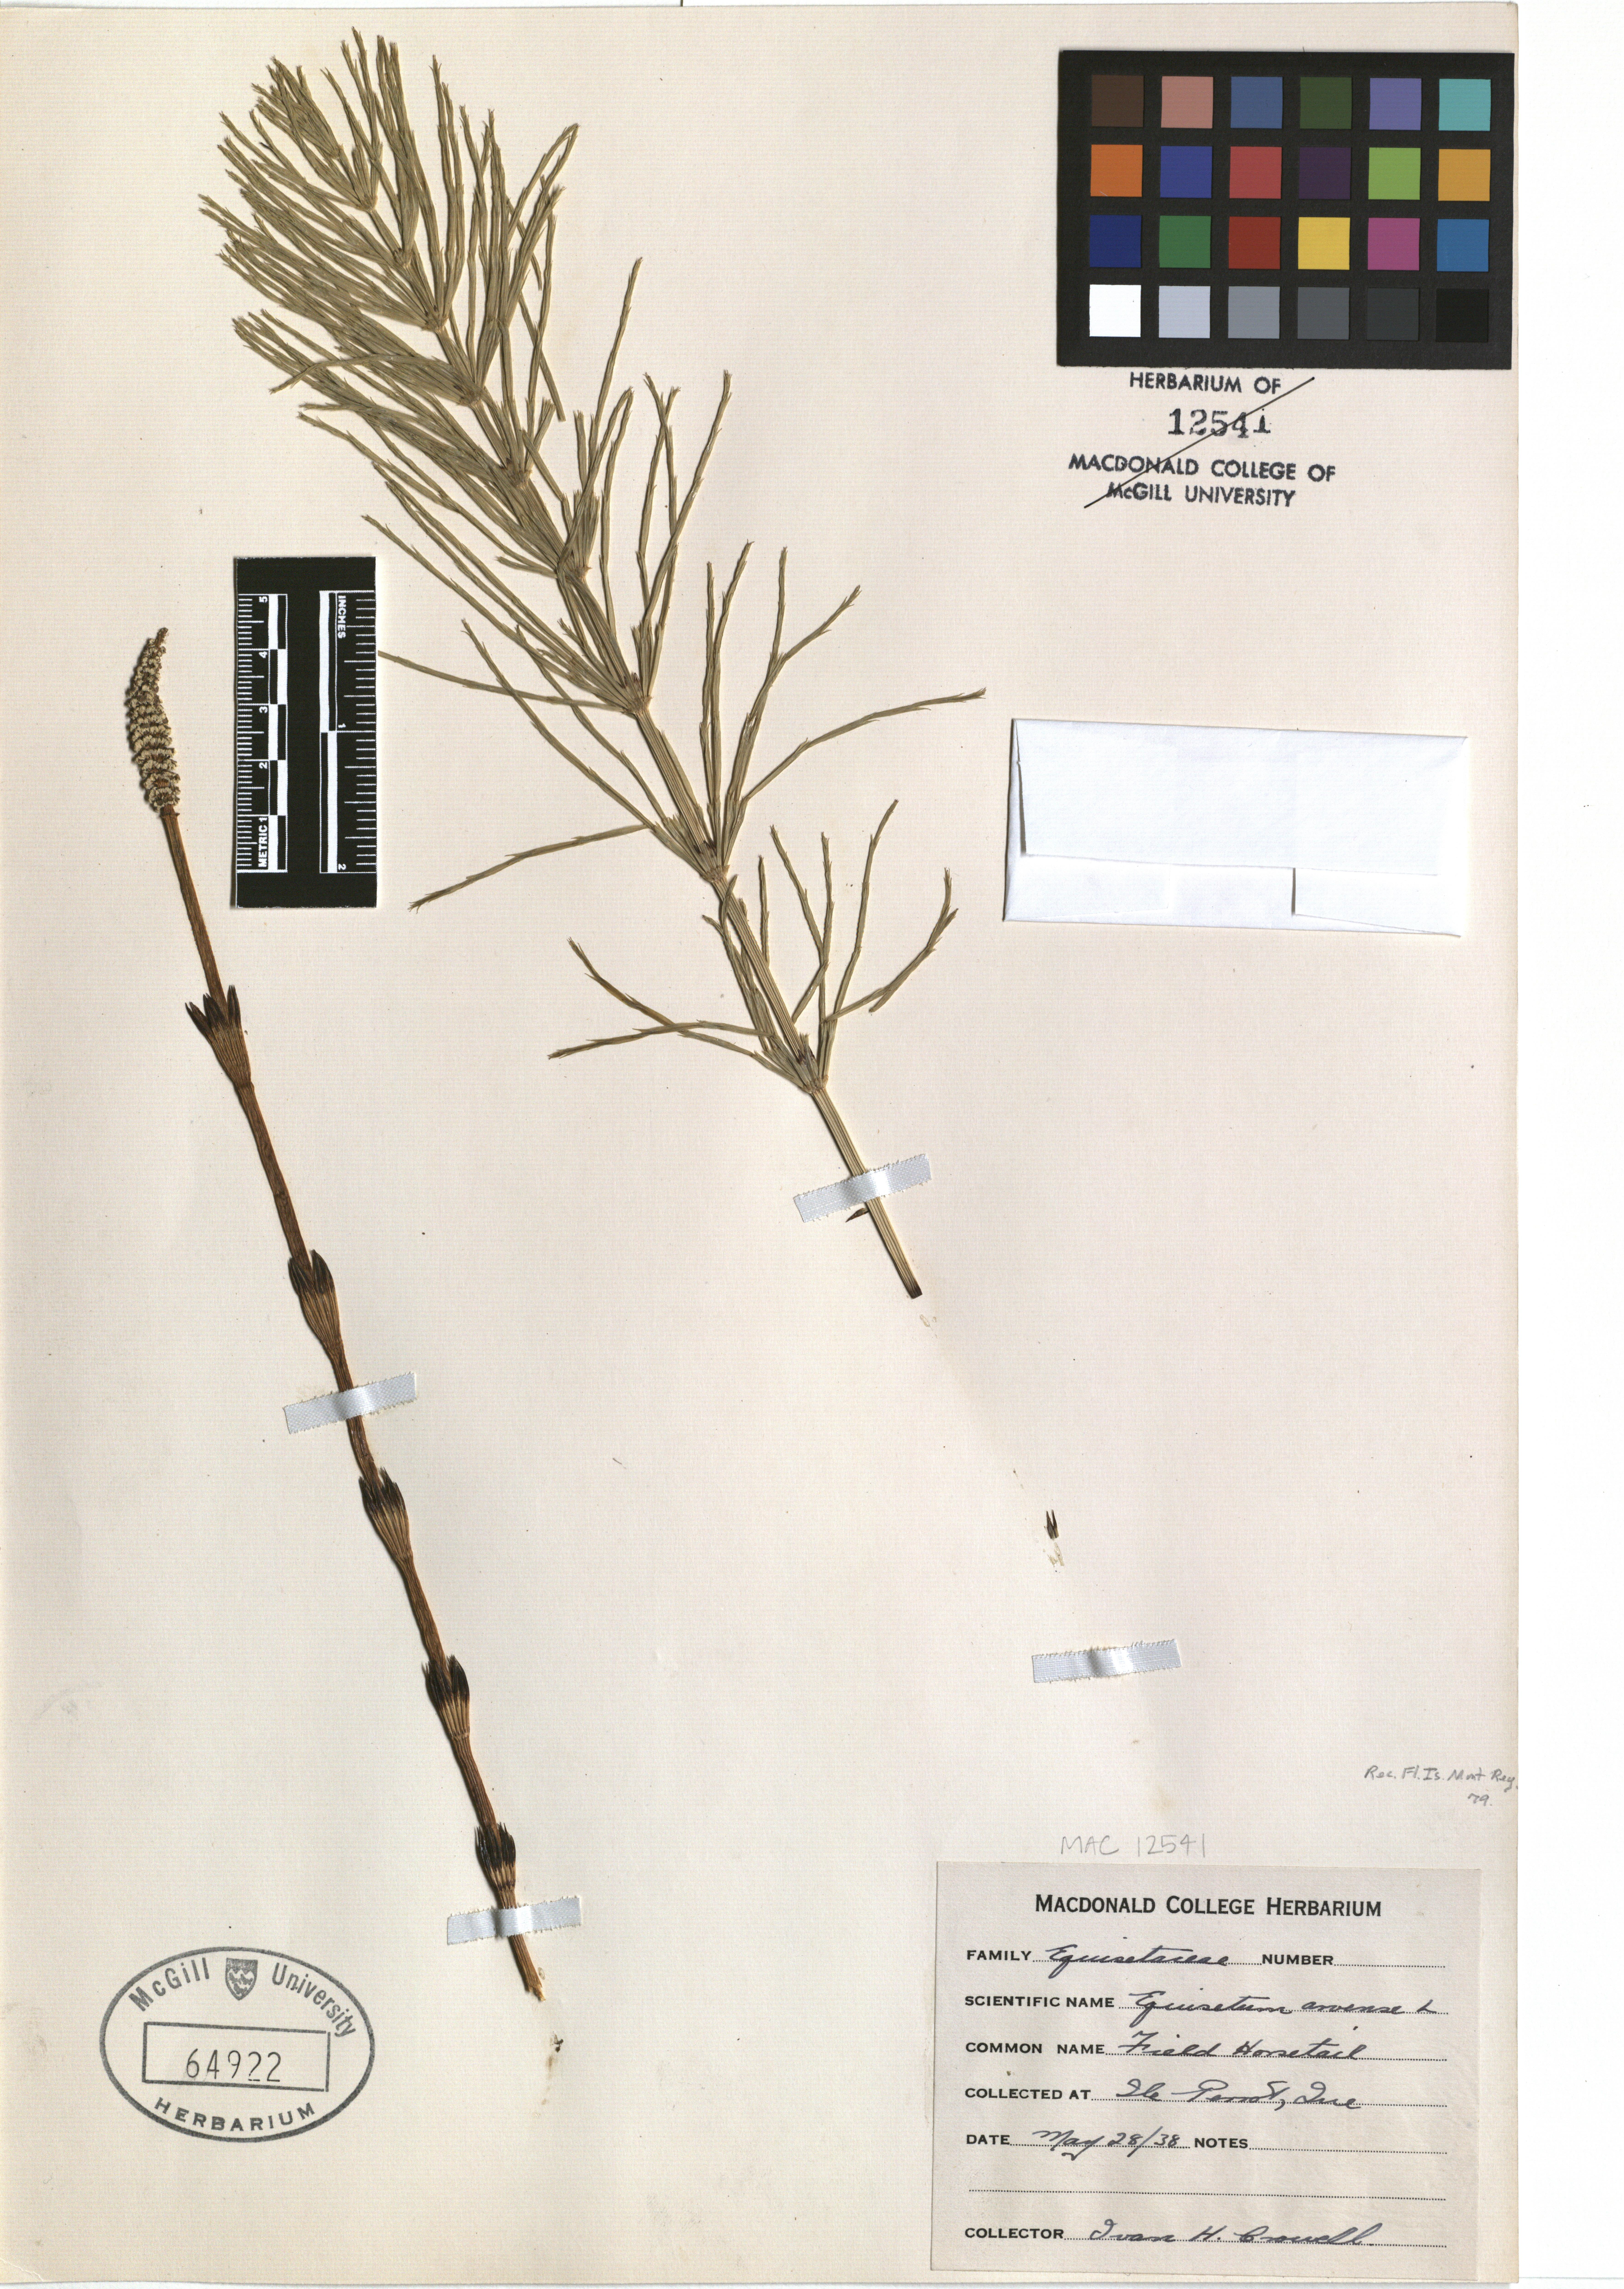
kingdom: Plantae
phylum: Tracheophyta
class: Polypodiopsida
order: Equisetales
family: Equisetaceae
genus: Equisetum
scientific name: Equisetum arvense
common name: Field horsetail
